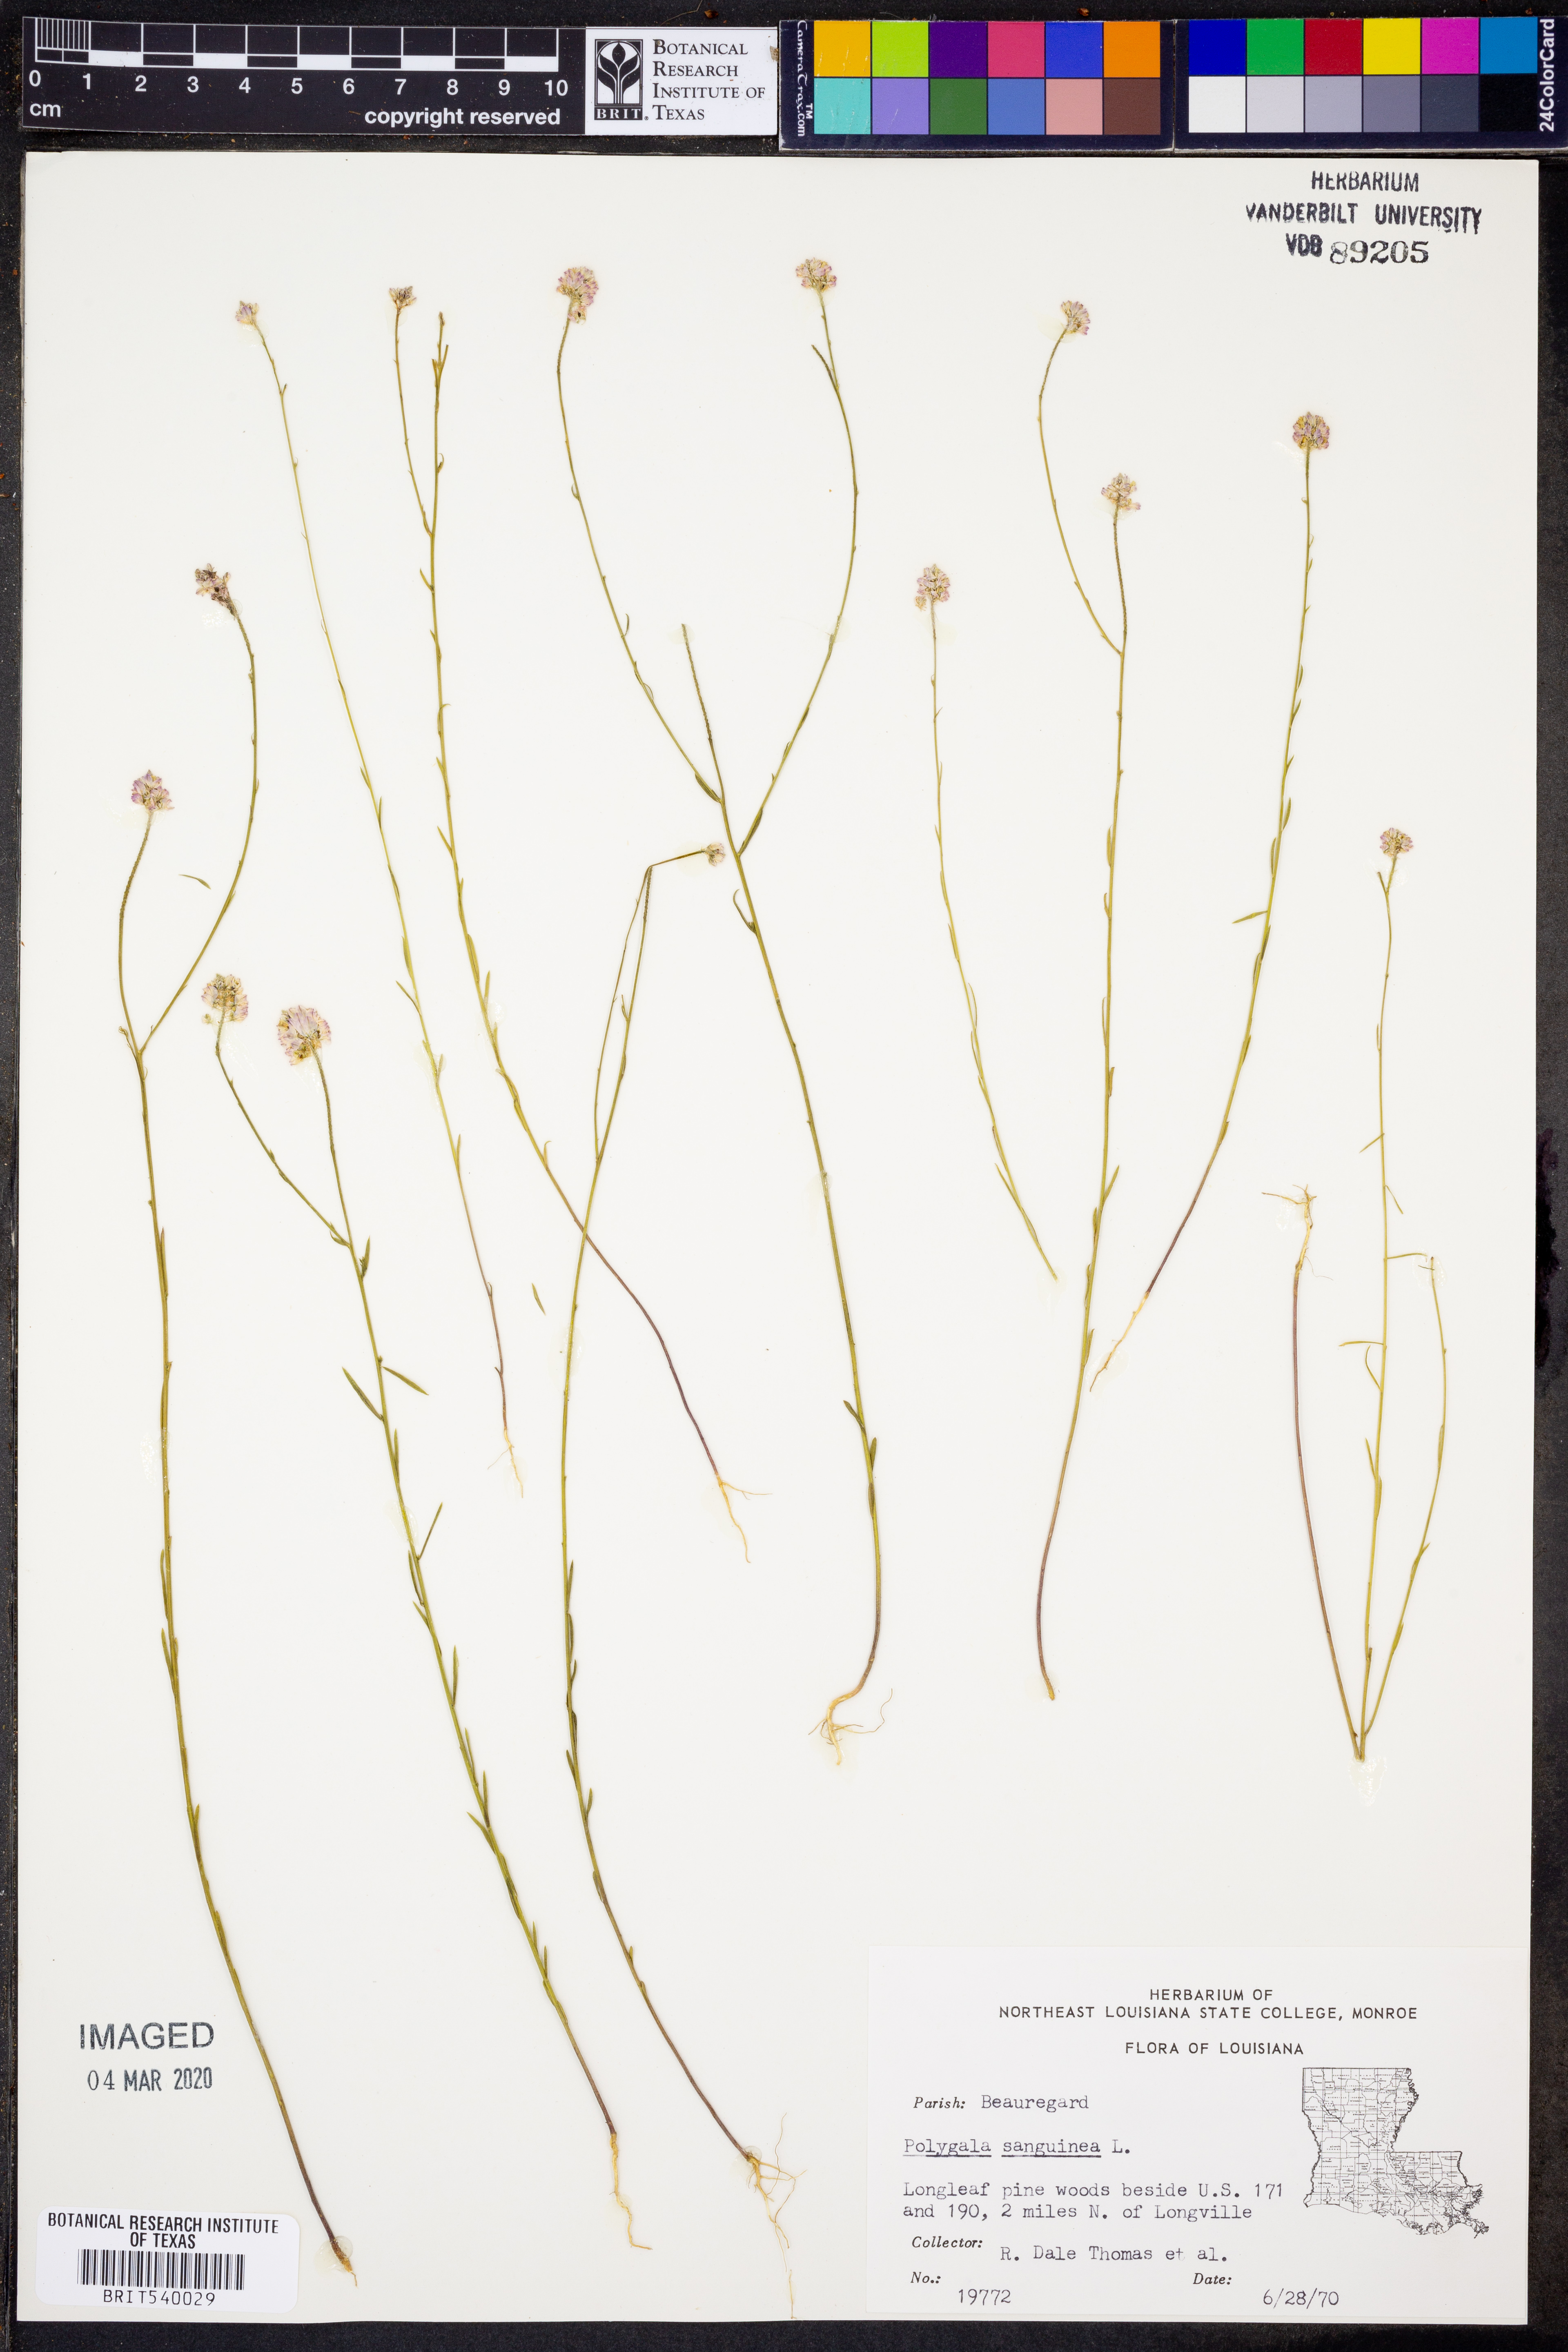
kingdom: Plantae
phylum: Tracheophyta
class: Magnoliopsida
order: Fabales
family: Polygalaceae
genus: Polygala
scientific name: Polygala sanguinea
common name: Blood milkwort
